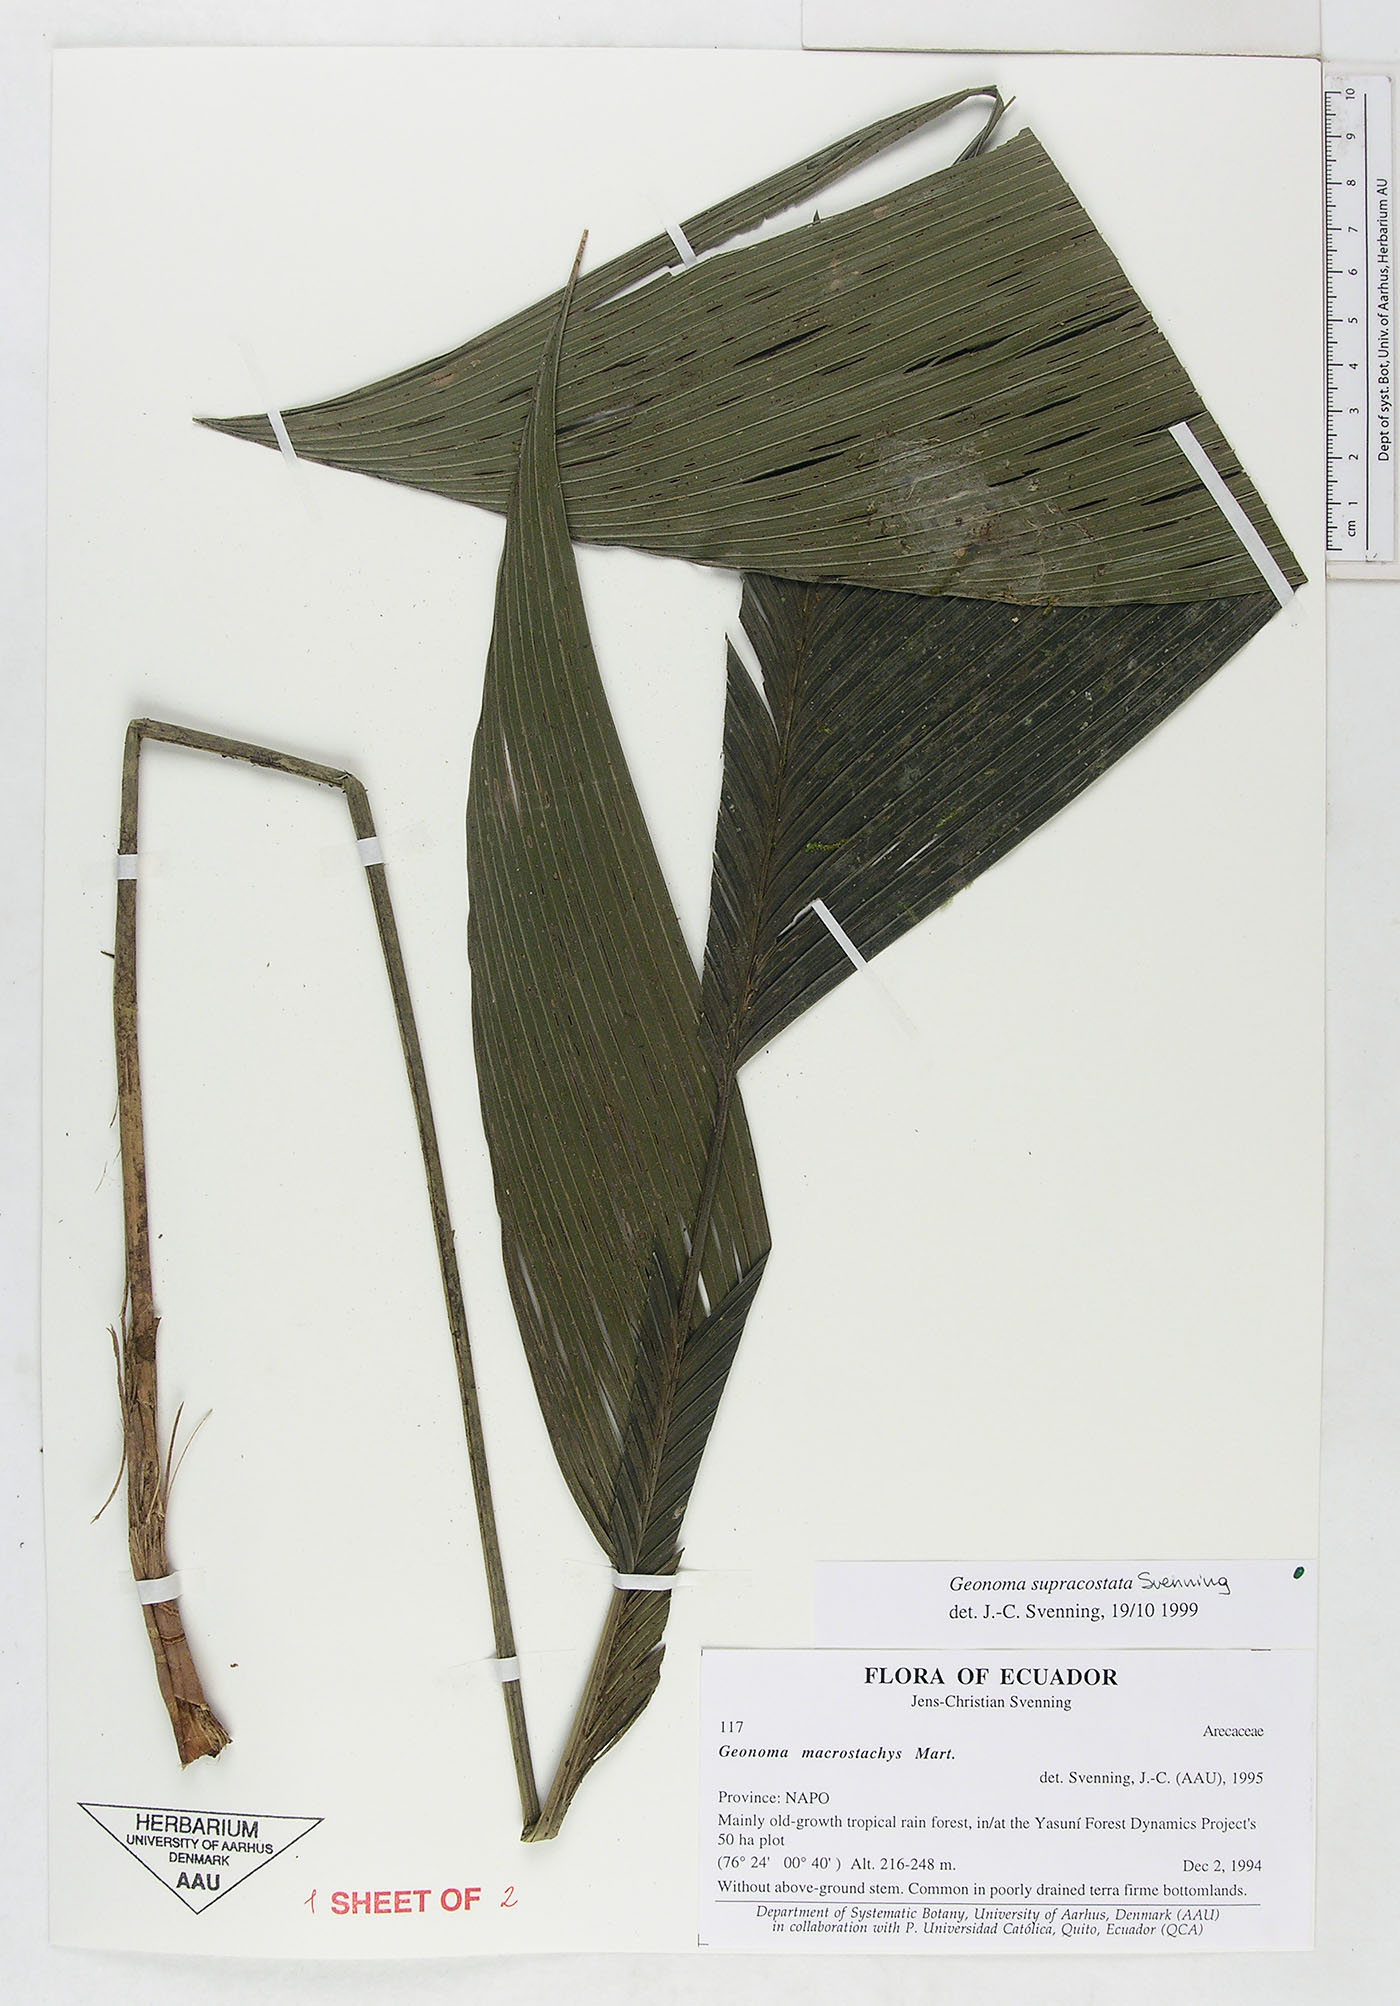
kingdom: Plantae
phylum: Tracheophyta
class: Liliopsida
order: Arecales
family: Arecaceae
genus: Geonoma
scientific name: Geonoma macrostachys
